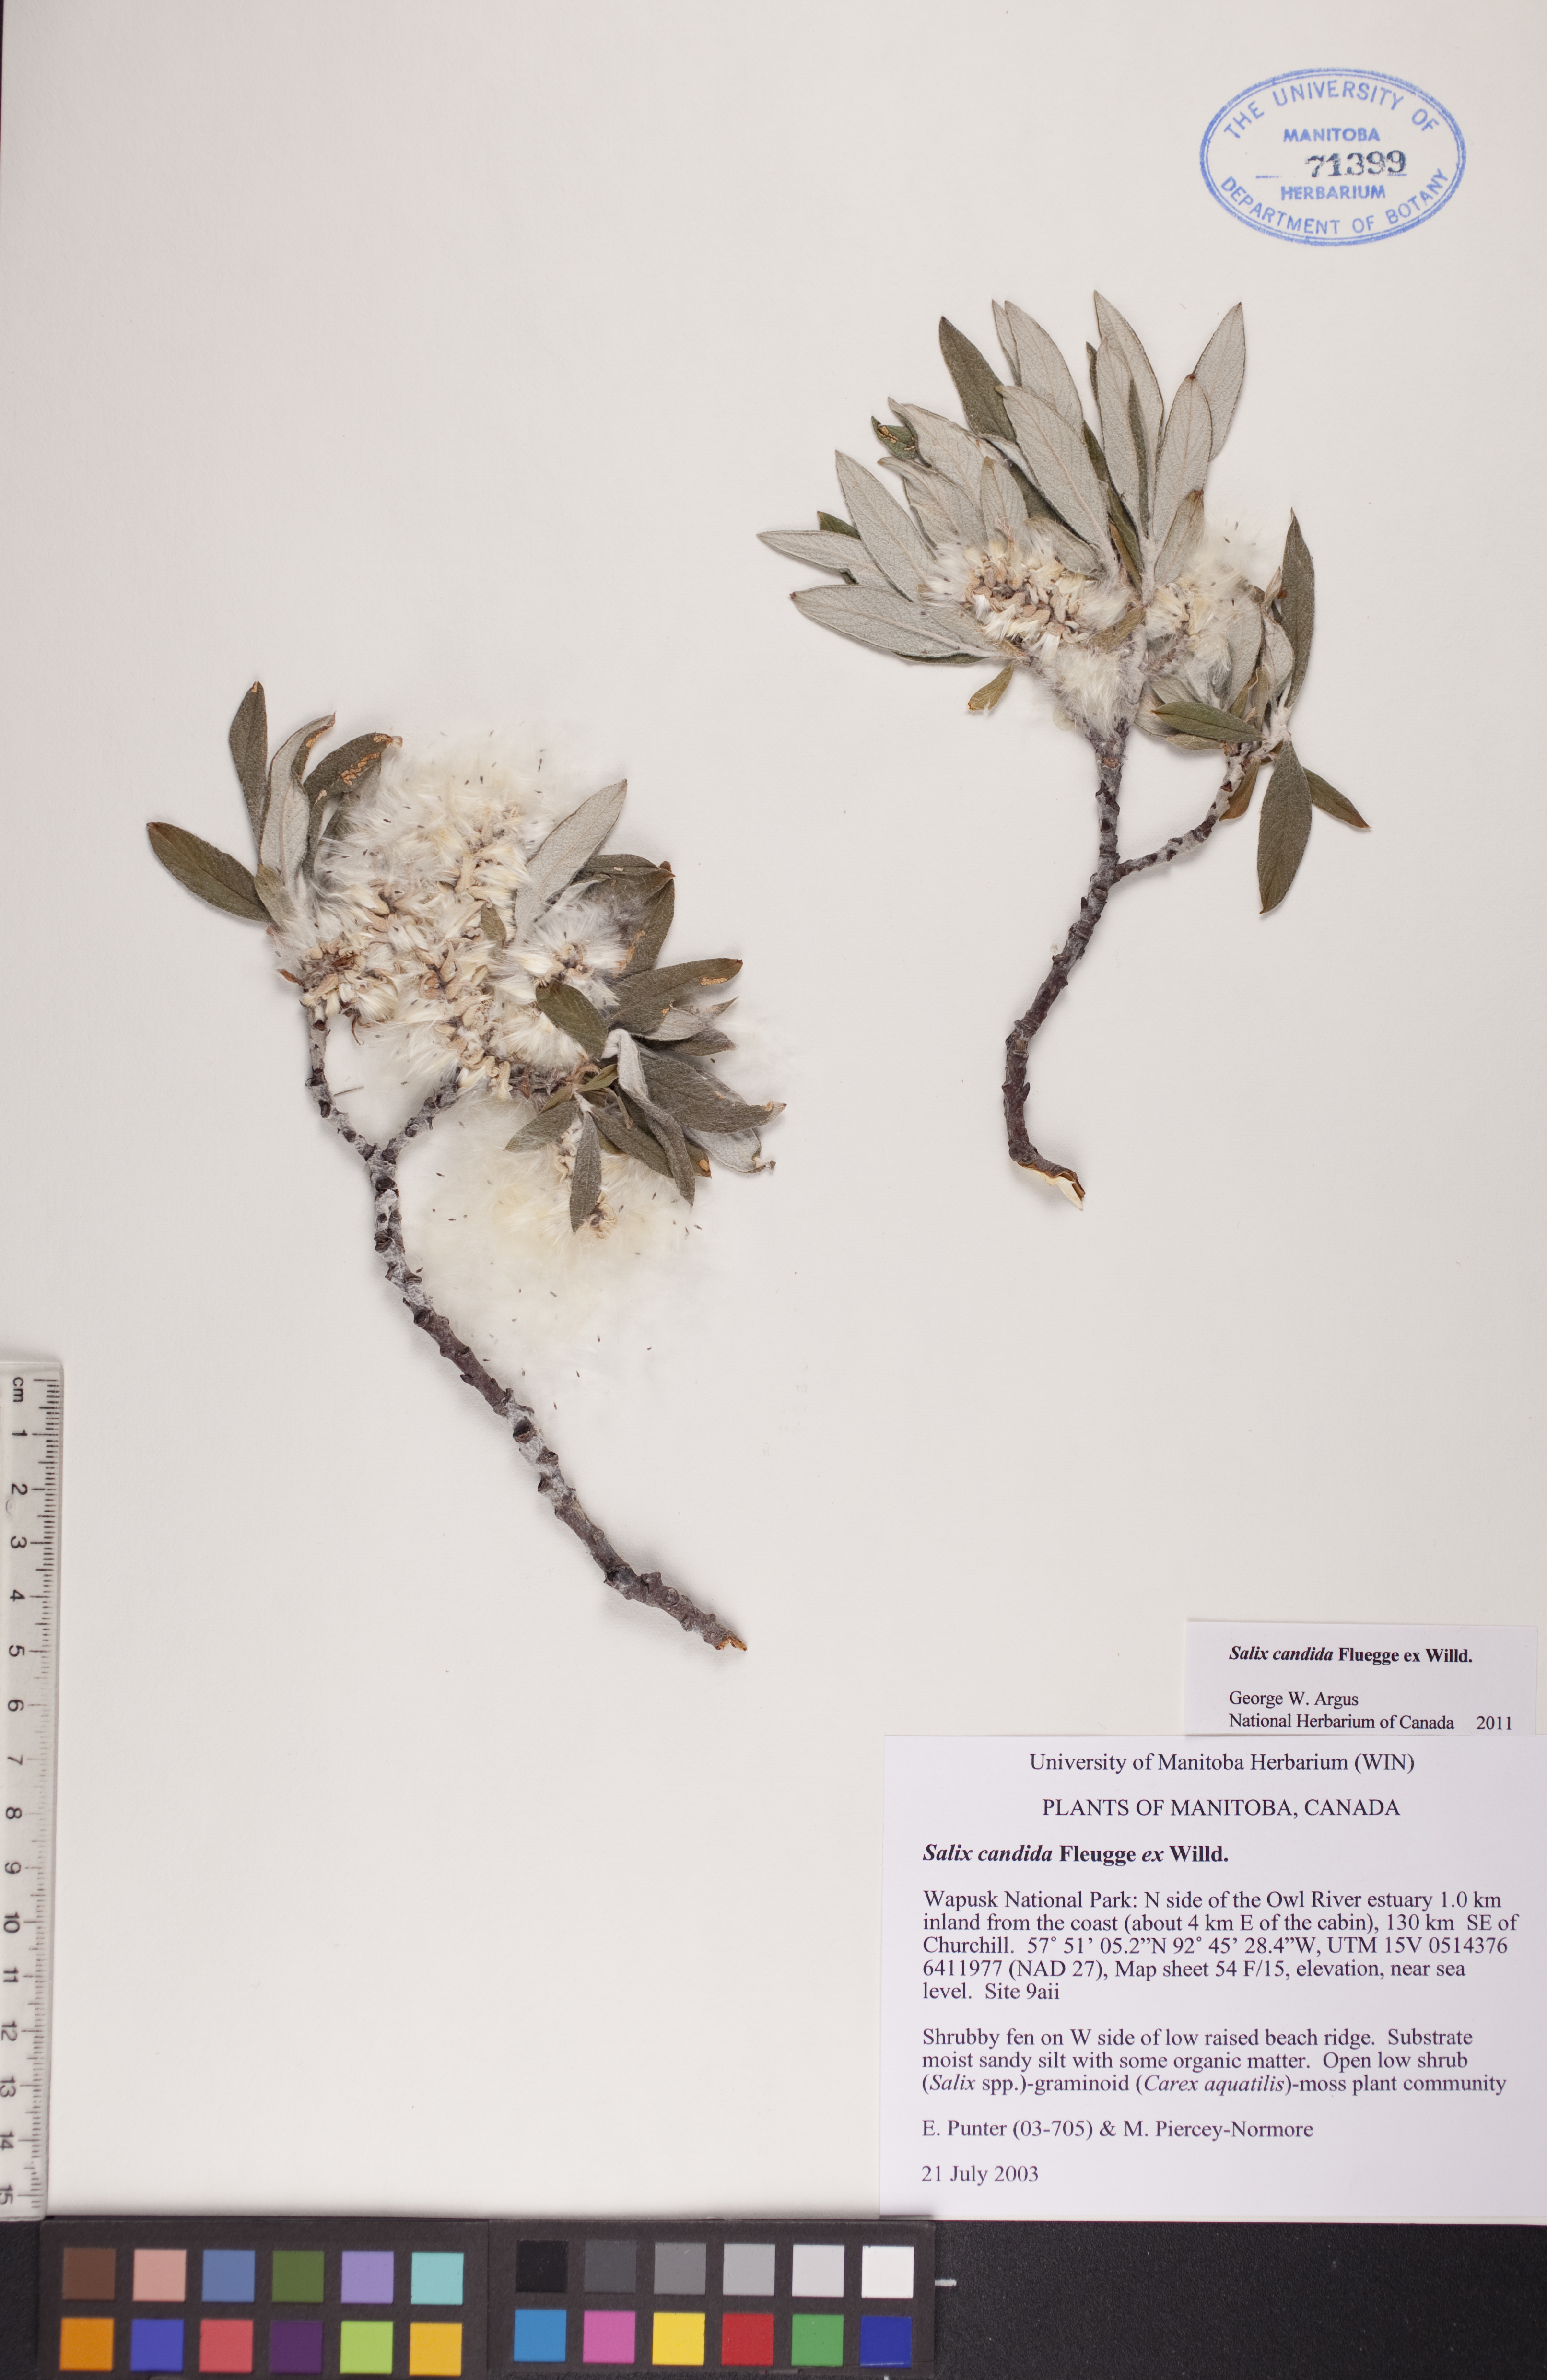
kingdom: Plantae
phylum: Tracheophyta
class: Magnoliopsida
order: Malpighiales
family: Salicaceae
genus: Salix
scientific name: Salix candida
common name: Hoary willow
